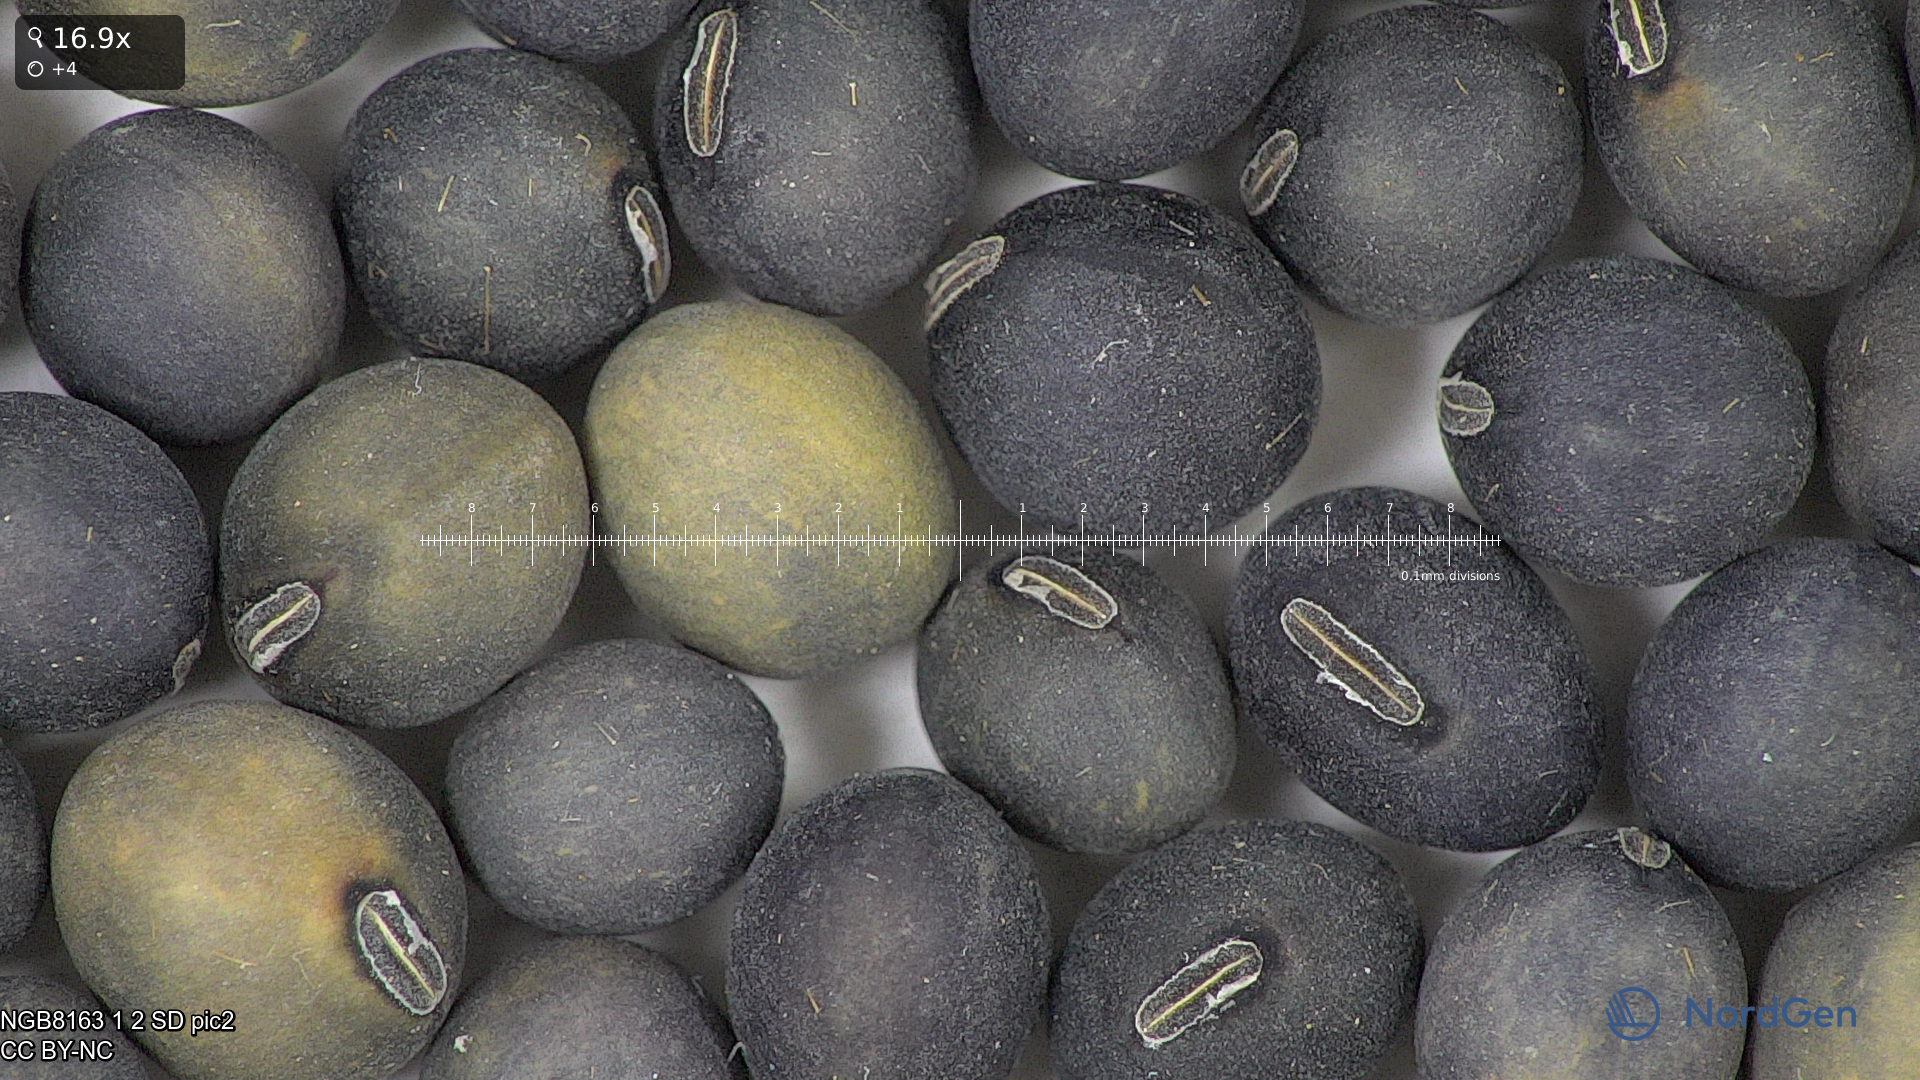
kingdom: Plantae
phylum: Tracheophyta
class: Magnoliopsida
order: Fabales
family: Fabaceae
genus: Glycine
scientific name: Glycine max
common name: Soya-bean
